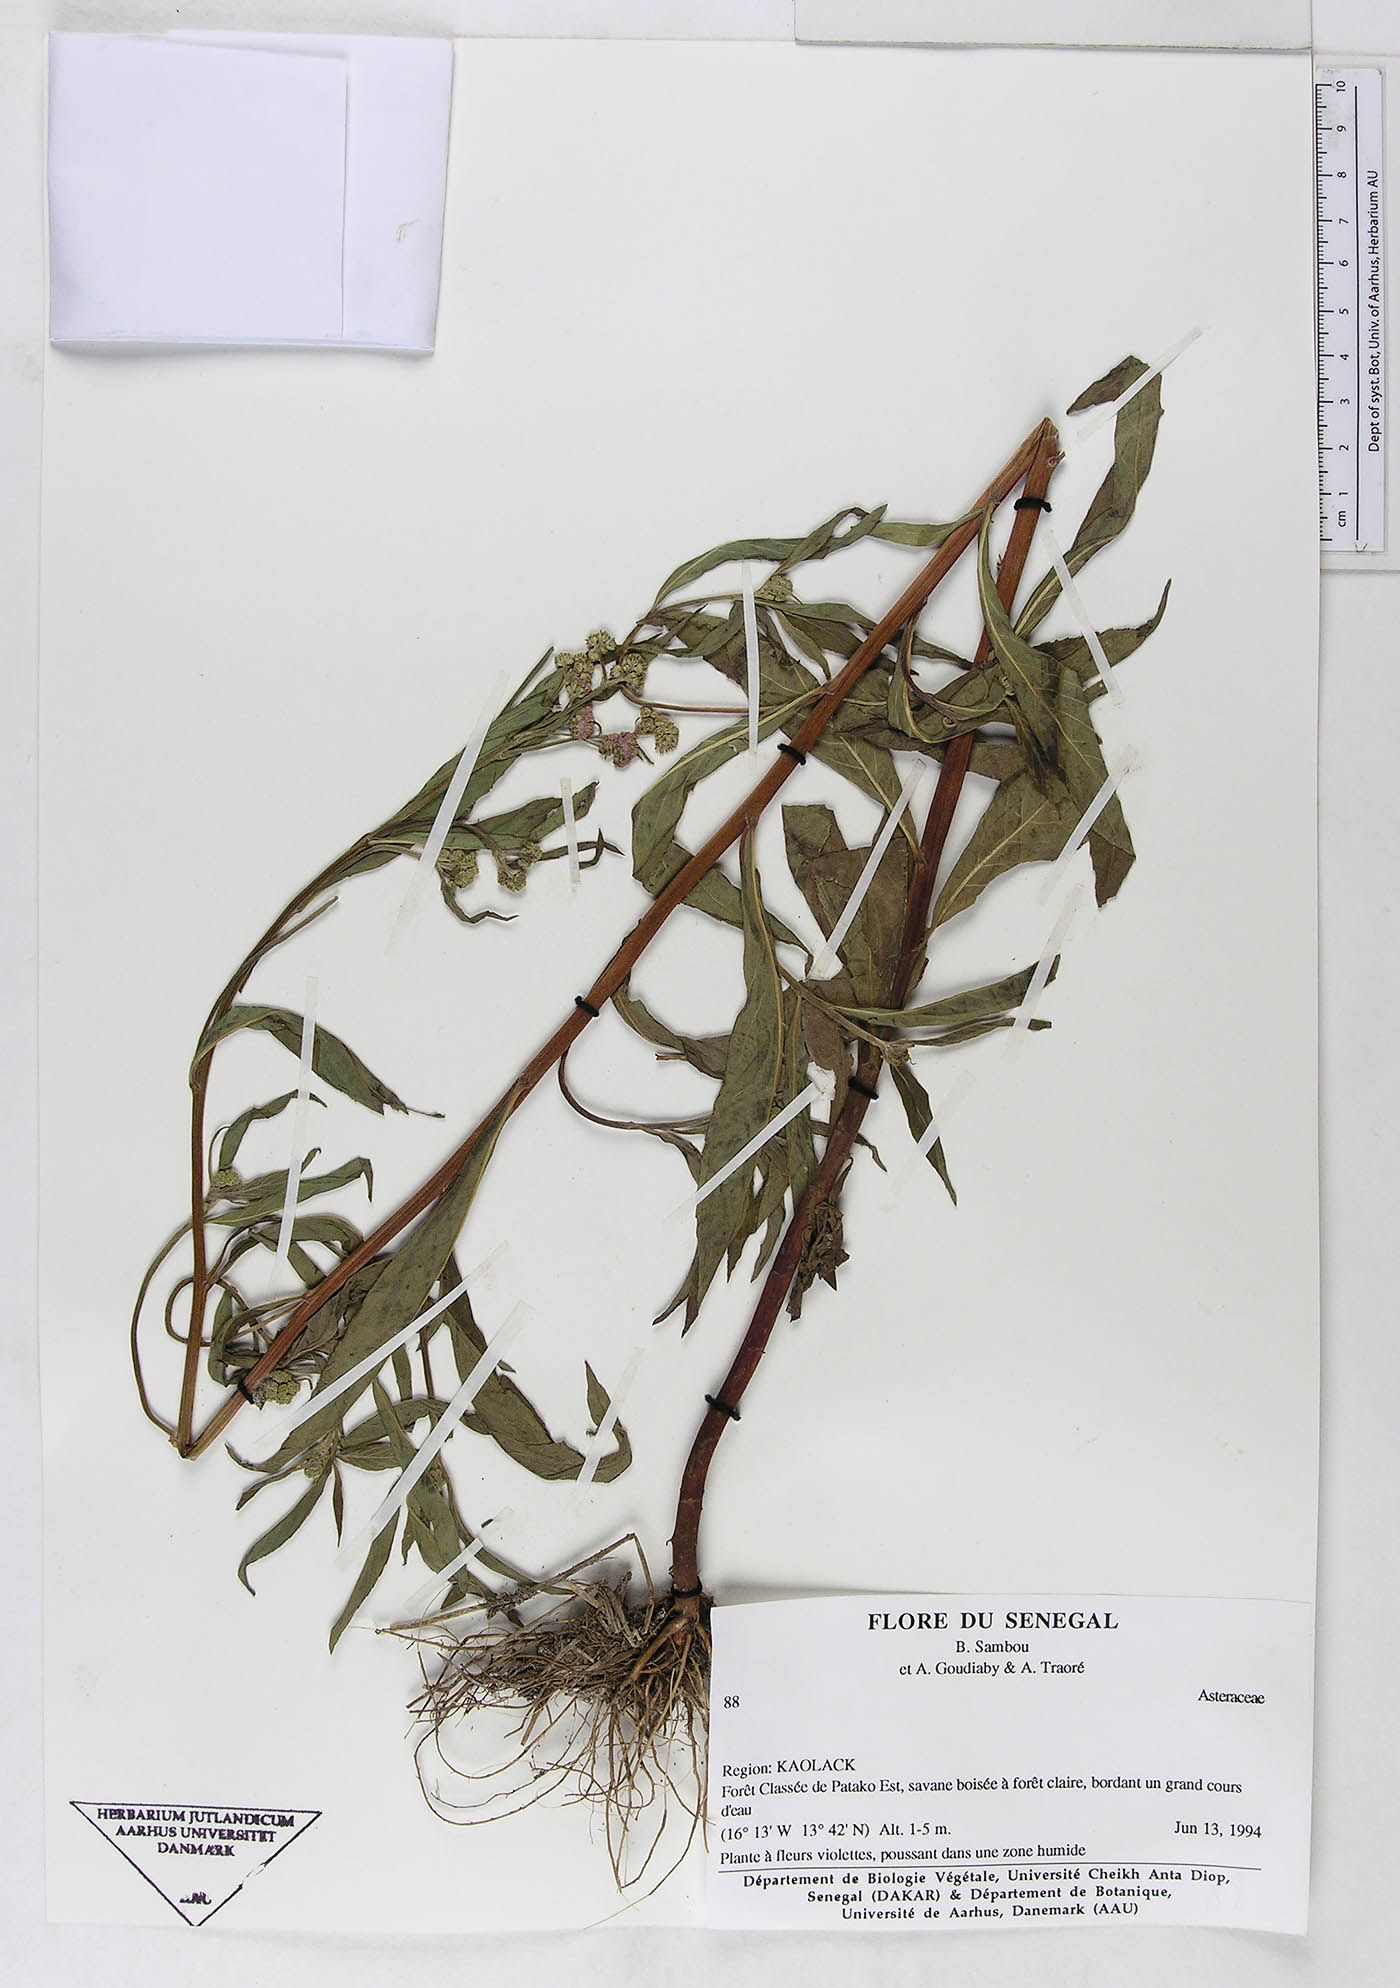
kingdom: Plantae
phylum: Tracheophyta
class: Magnoliopsida
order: Asterales
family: Asteraceae
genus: Ethulia
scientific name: Ethulia conyzoides
